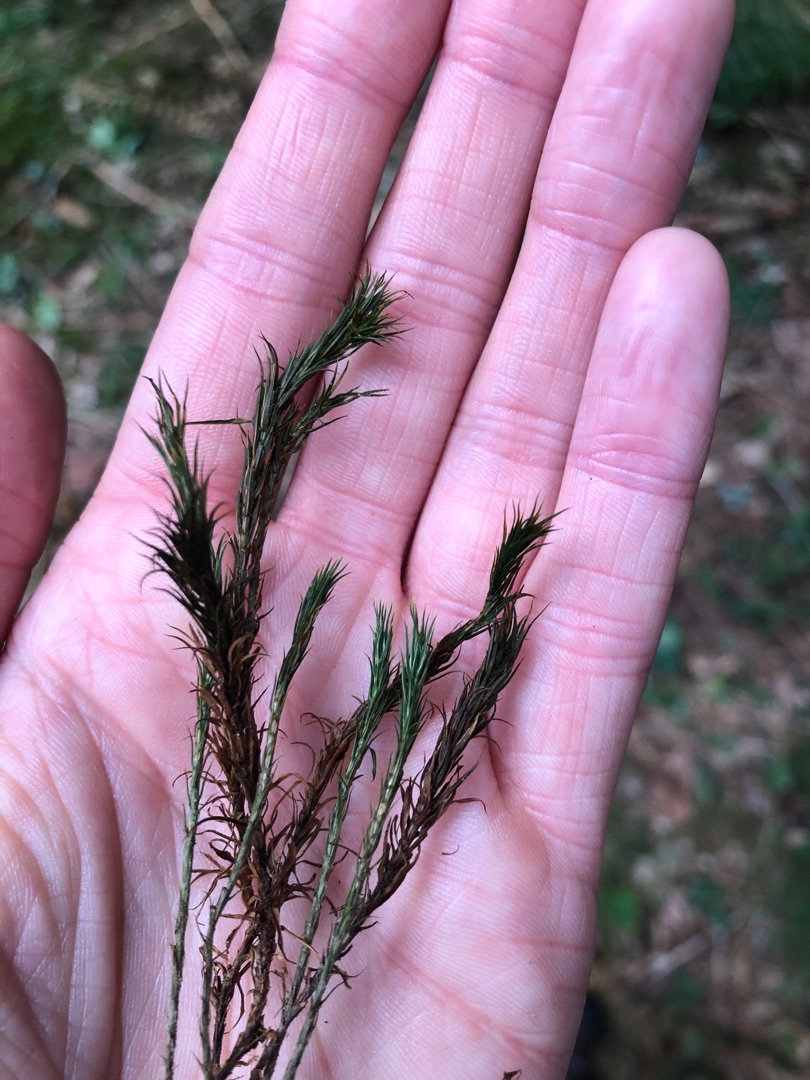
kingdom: Plantae
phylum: Bryophyta
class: Polytrichopsida
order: Polytrichales
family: Polytrichaceae
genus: Polytrichum
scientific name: Polytrichum formosum
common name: Skov-jomfruhår
